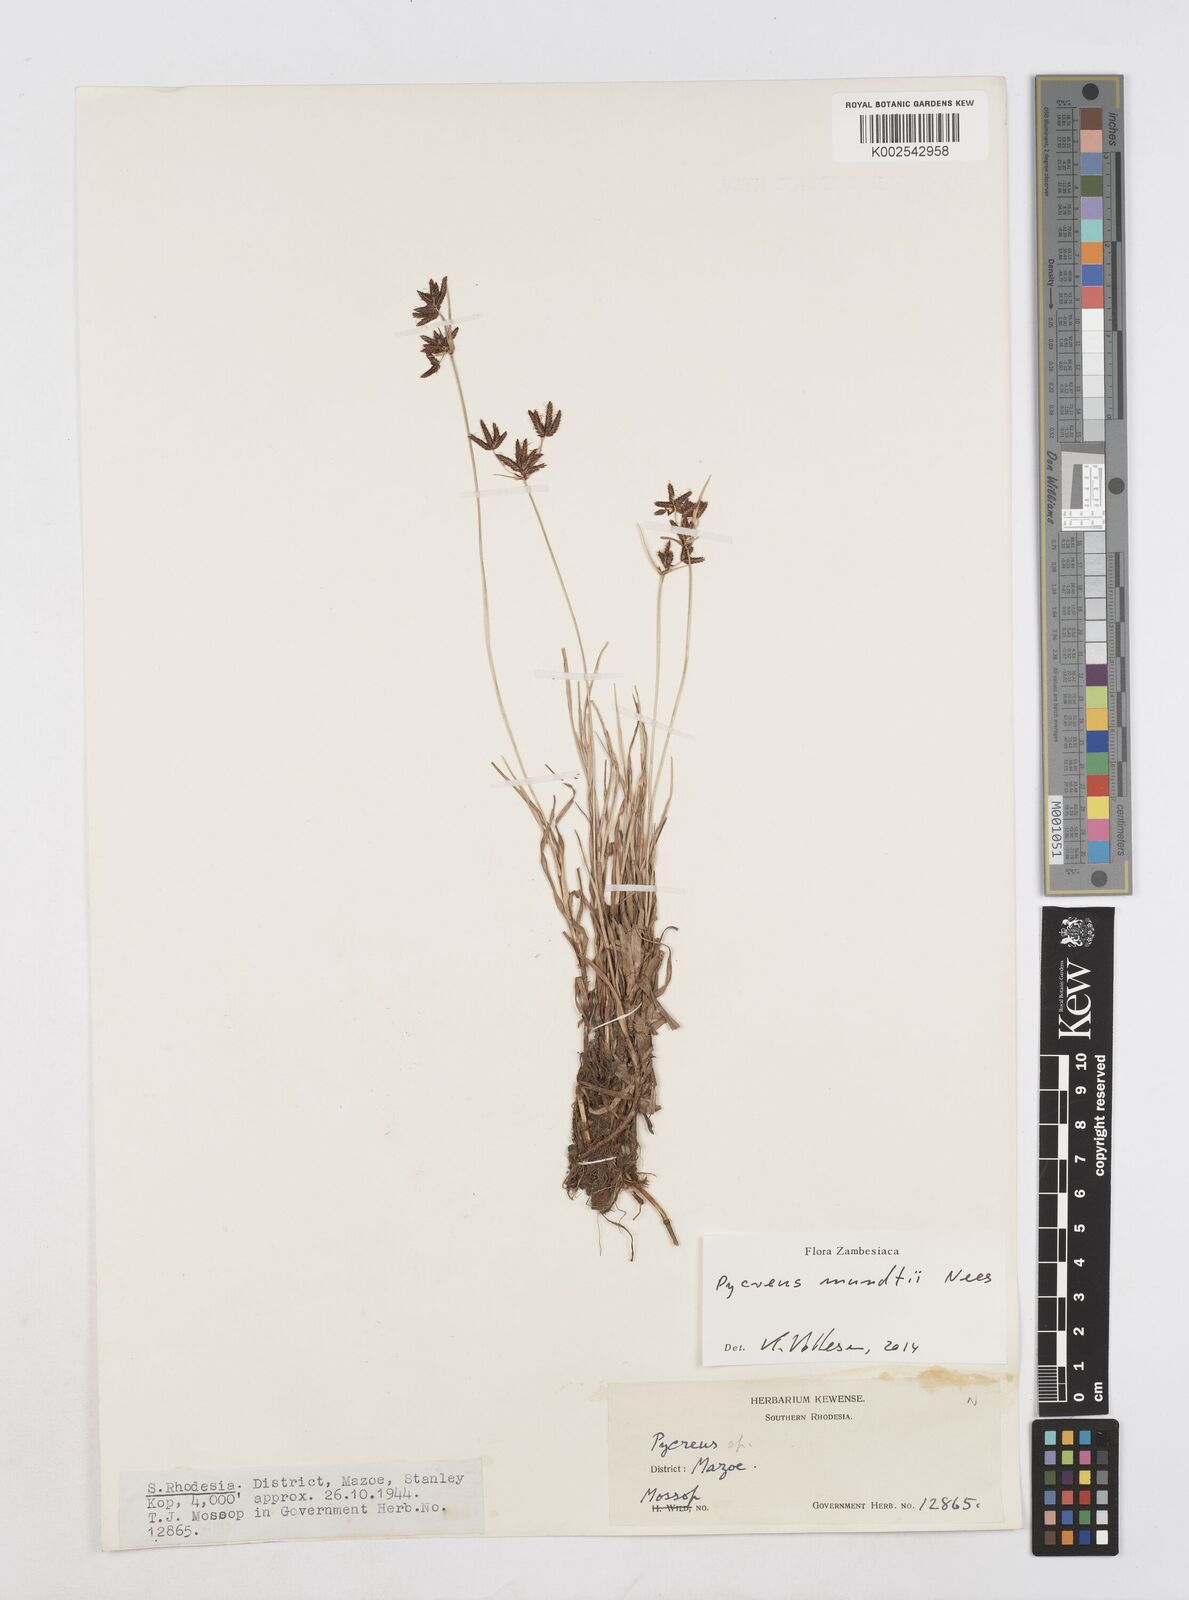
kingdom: Plantae
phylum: Tracheophyta
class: Liliopsida
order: Poales
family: Cyperaceae
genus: Cyperus
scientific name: Cyperus mundii
